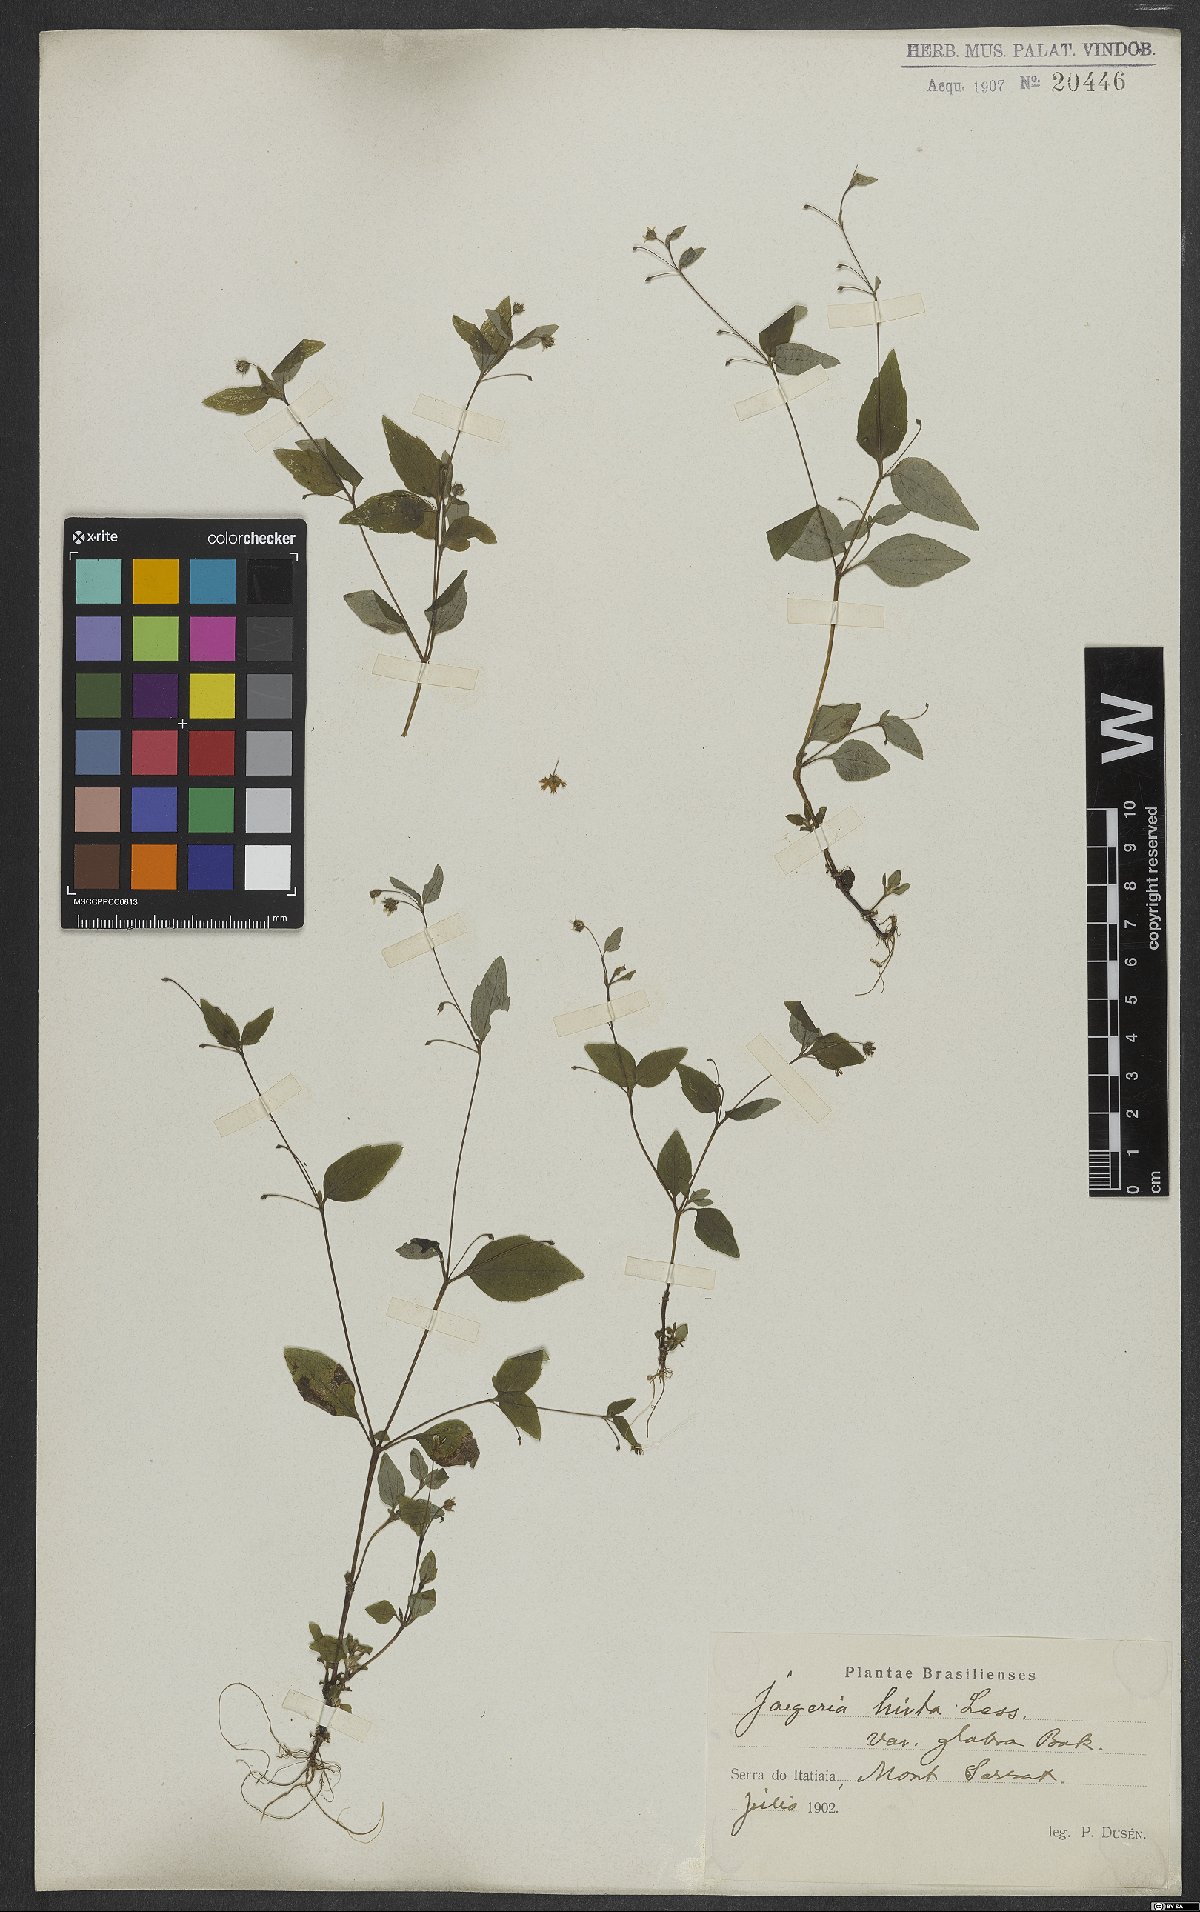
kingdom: Plantae
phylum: Tracheophyta
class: Magnoliopsida
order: Asterales
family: Asteraceae
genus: Jaegeria
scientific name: Jaegeria hirta
